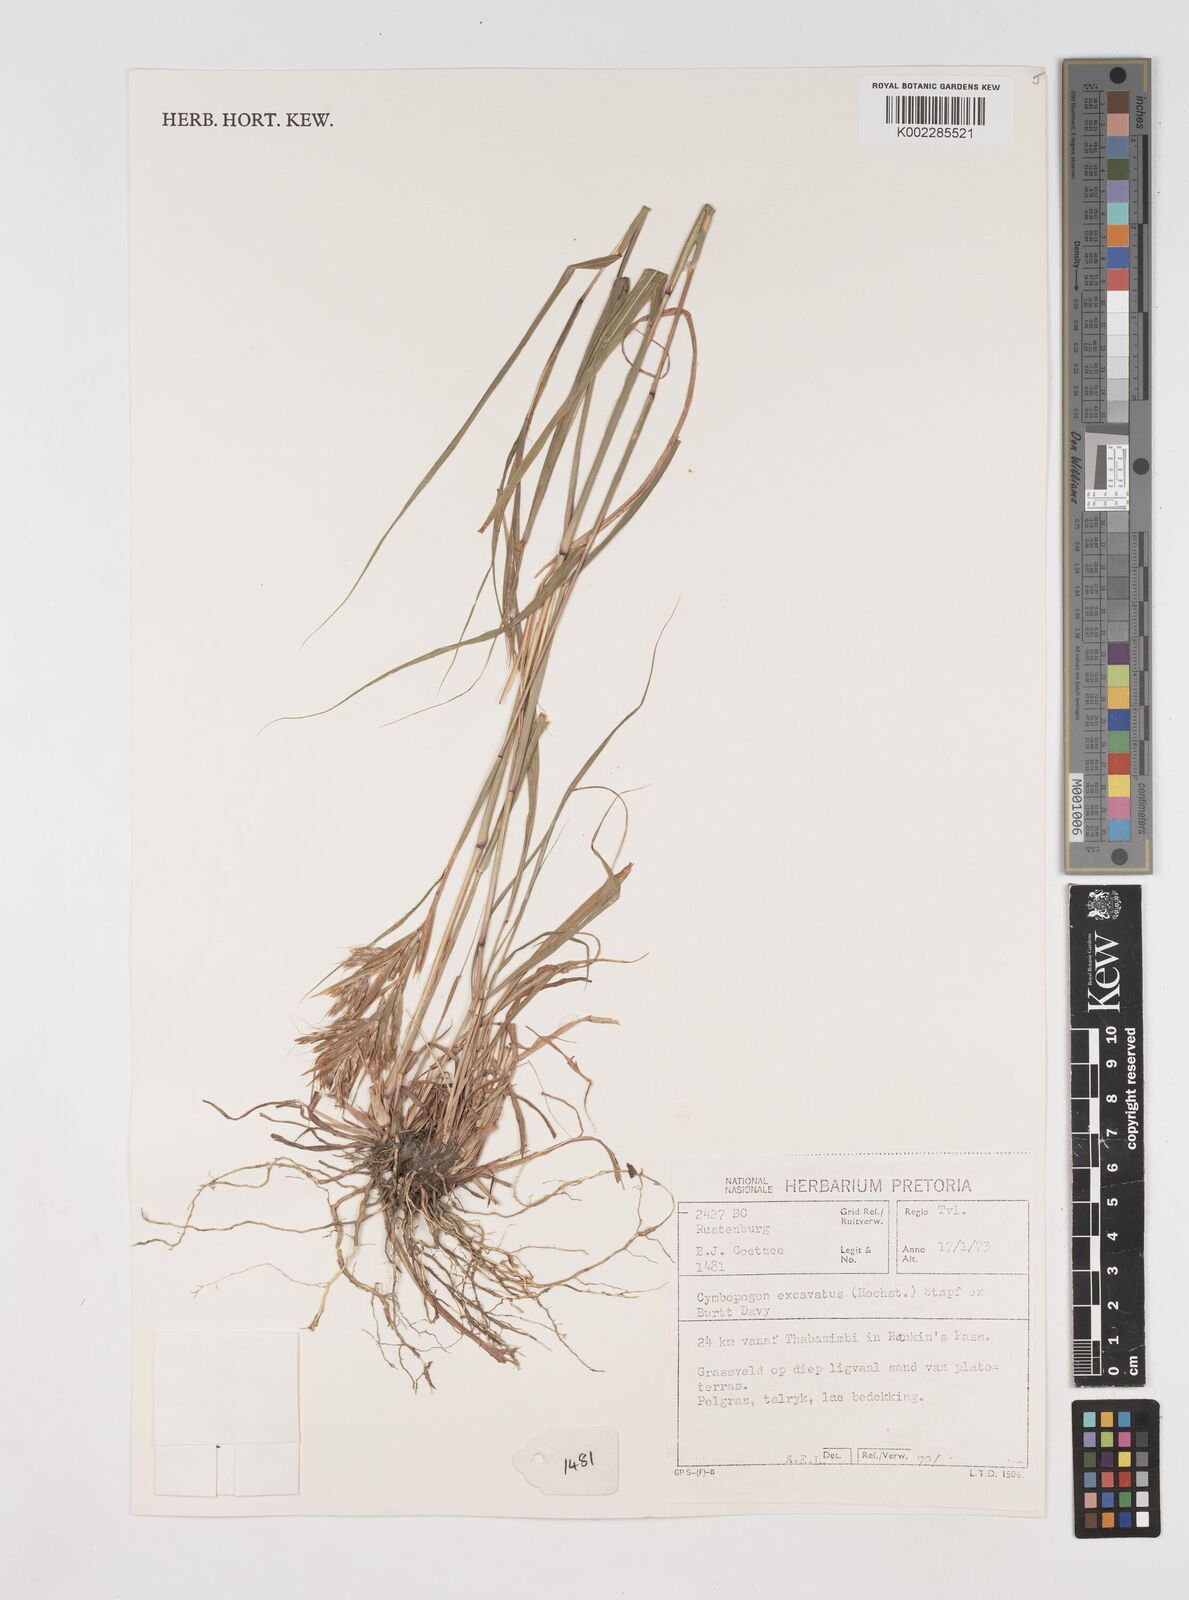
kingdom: Plantae
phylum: Tracheophyta
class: Liliopsida
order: Poales
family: Poaceae
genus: Cymbopogon
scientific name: Cymbopogon caesius
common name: Kachi grass
